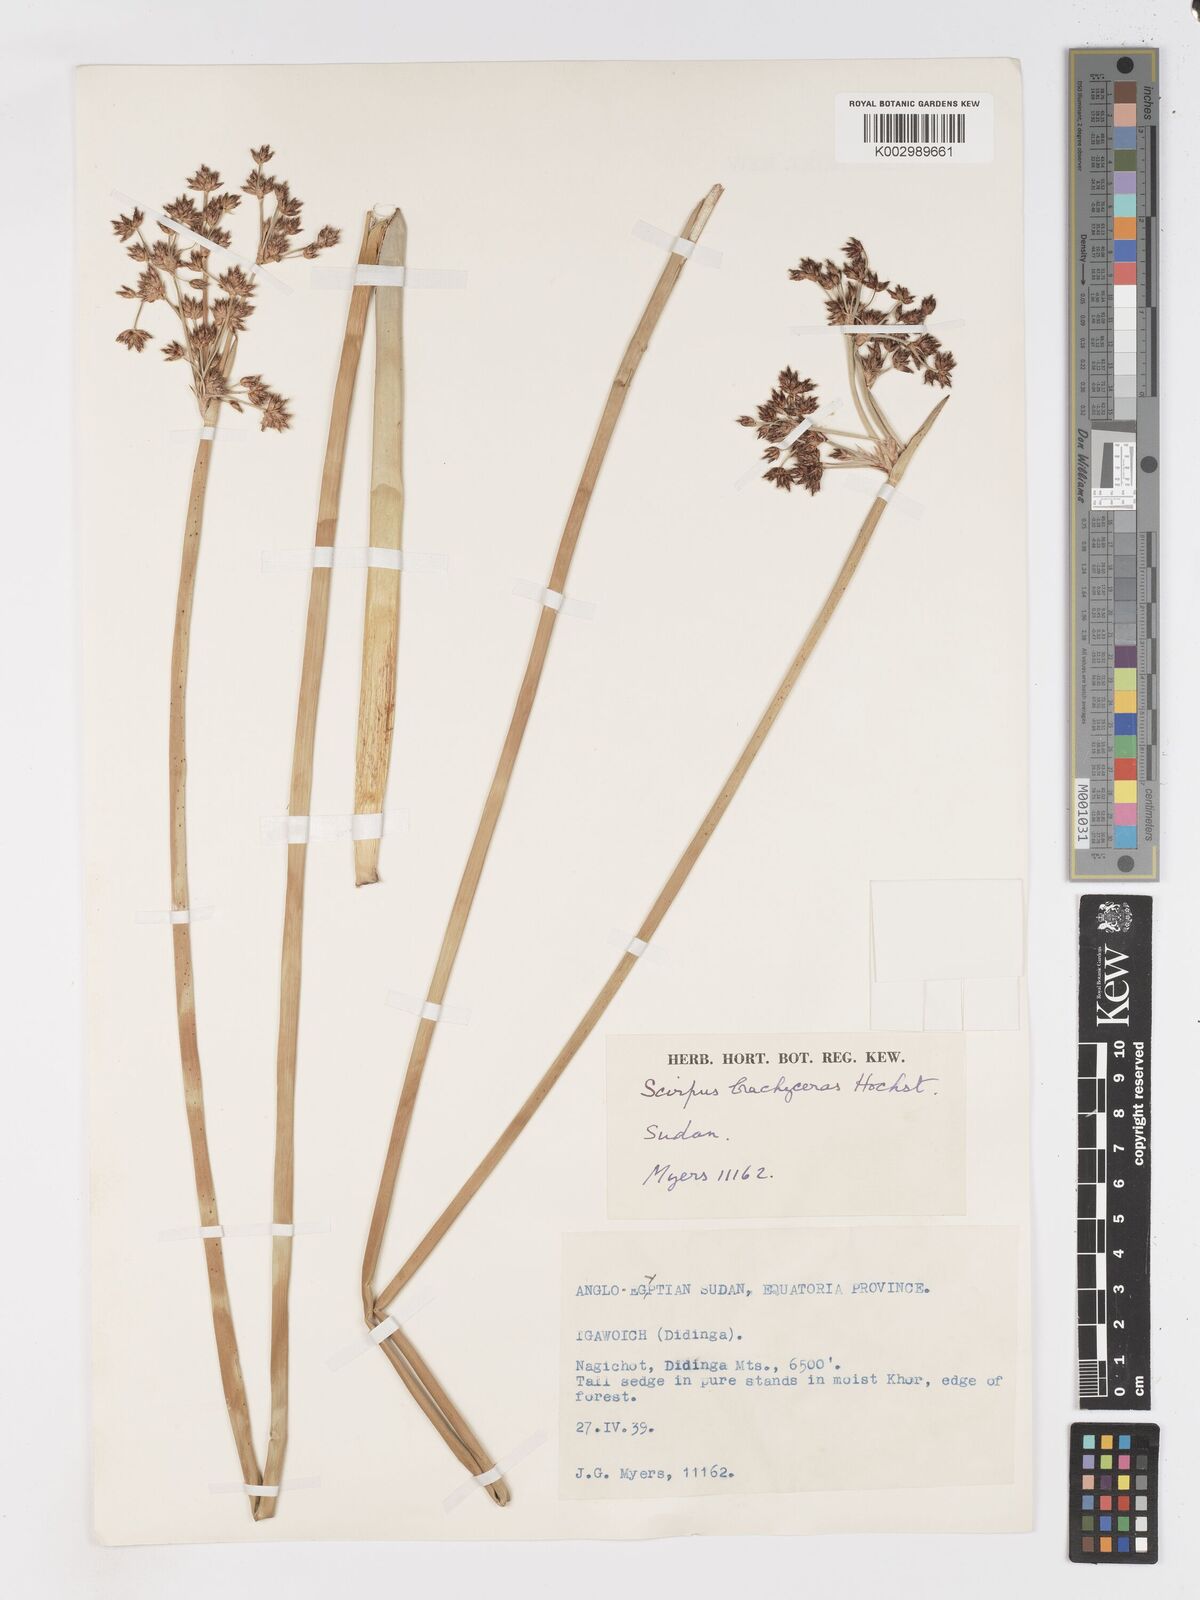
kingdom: Plantae
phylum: Tracheophyta
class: Liliopsida
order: Poales
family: Cyperaceae
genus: Schoenoplectiella
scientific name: Schoenoplectiella brachyceras
